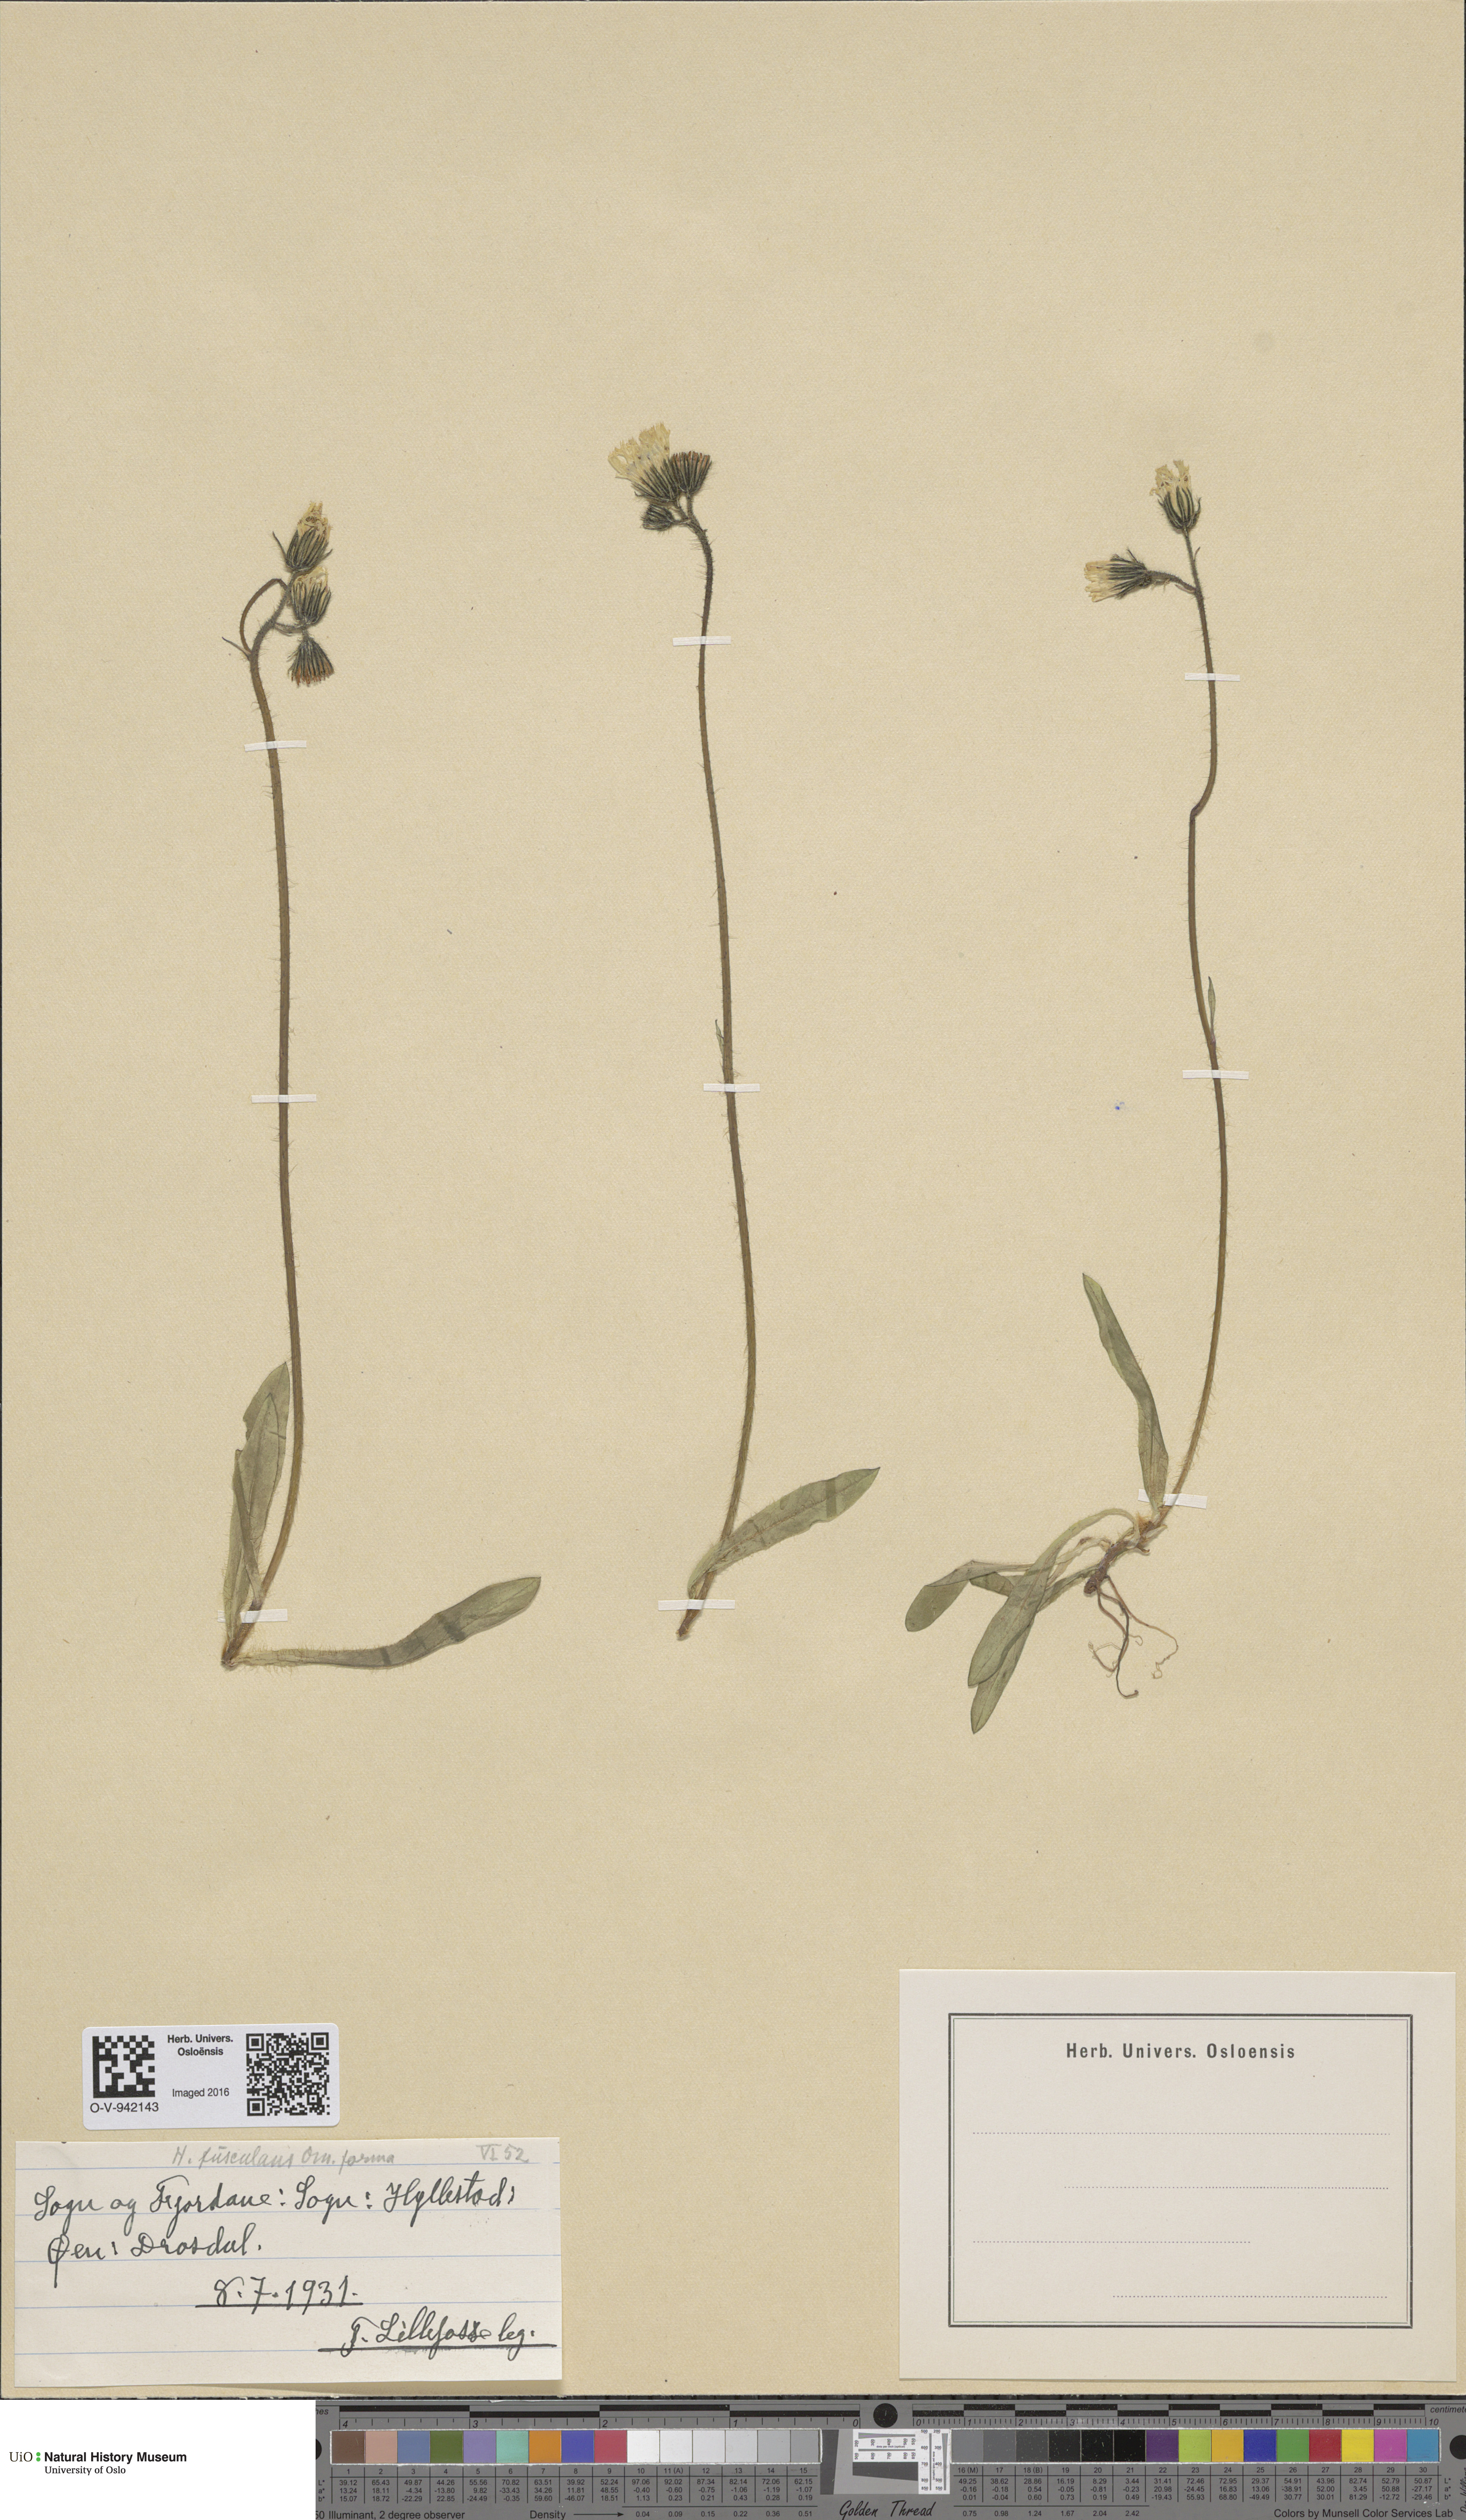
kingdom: Plantae
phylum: Tracheophyta
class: Magnoliopsida
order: Asterales
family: Asteraceae
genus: Pilosella
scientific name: Pilosella dubia
